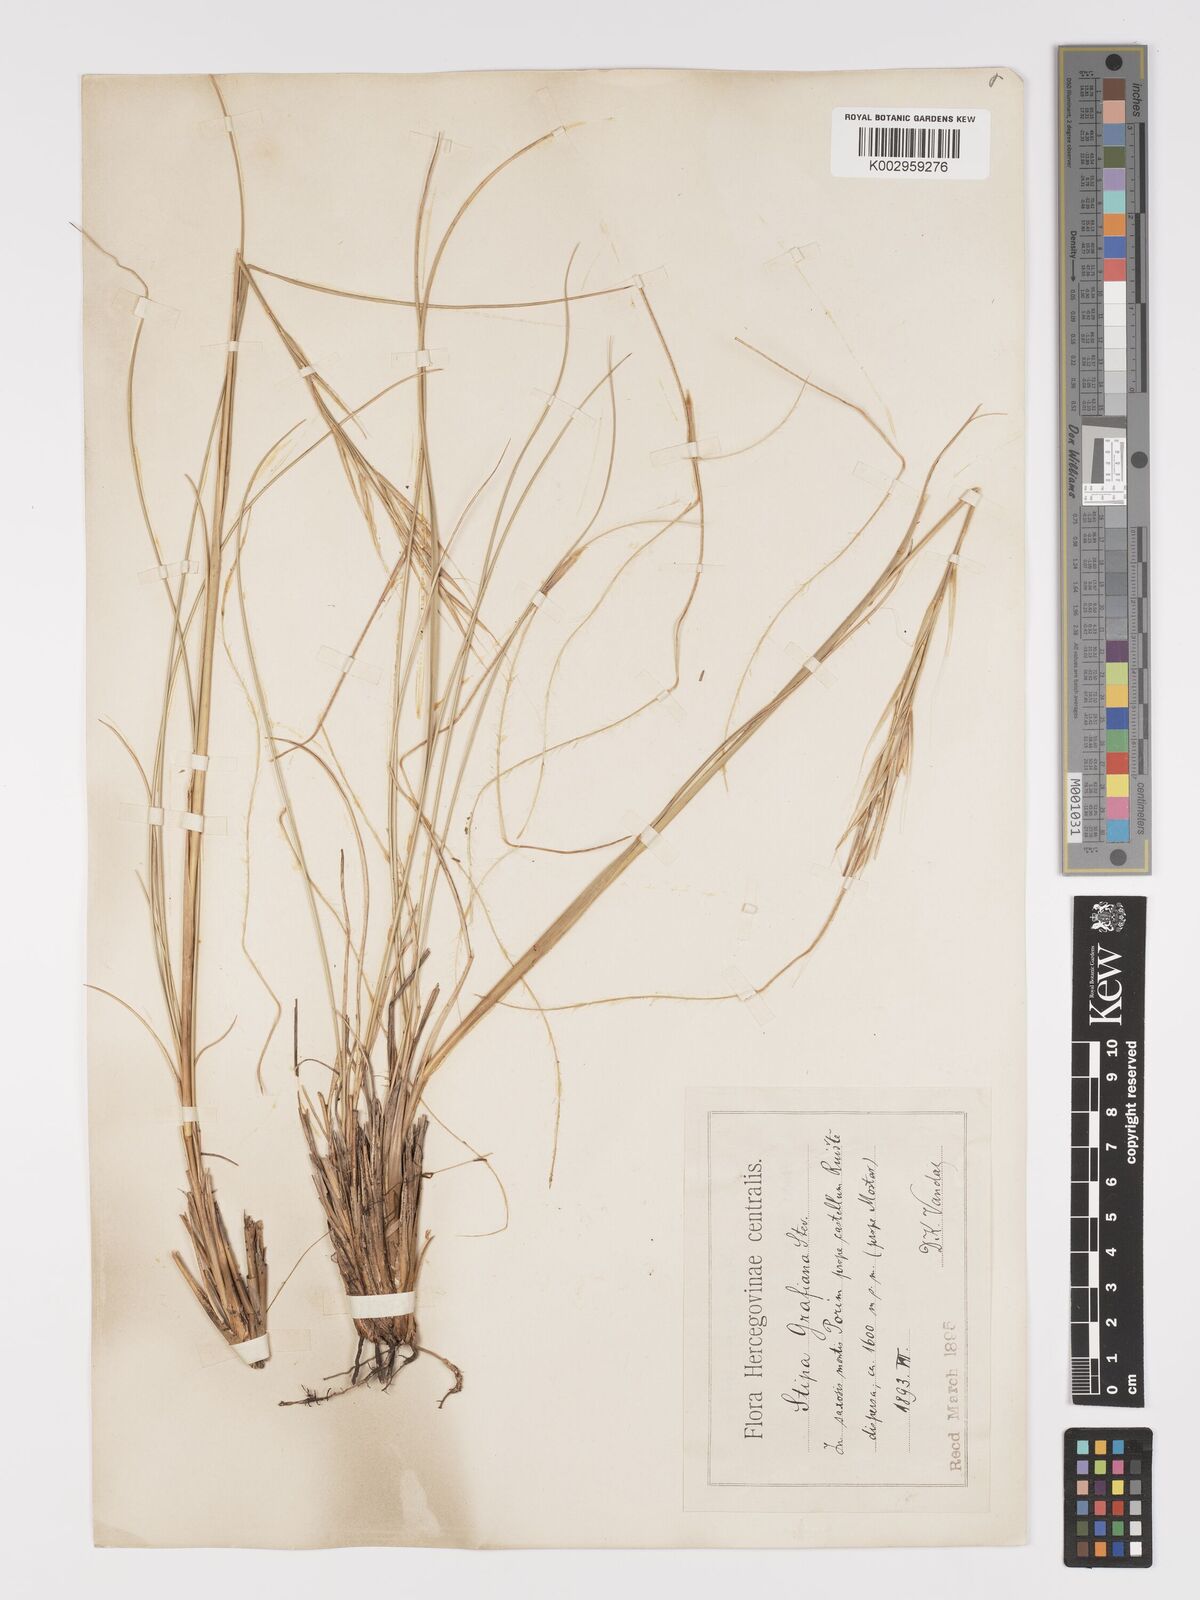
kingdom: Plantae
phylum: Tracheophyta
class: Liliopsida
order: Poales
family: Poaceae
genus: Stipa
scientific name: Stipa pulcherrima
